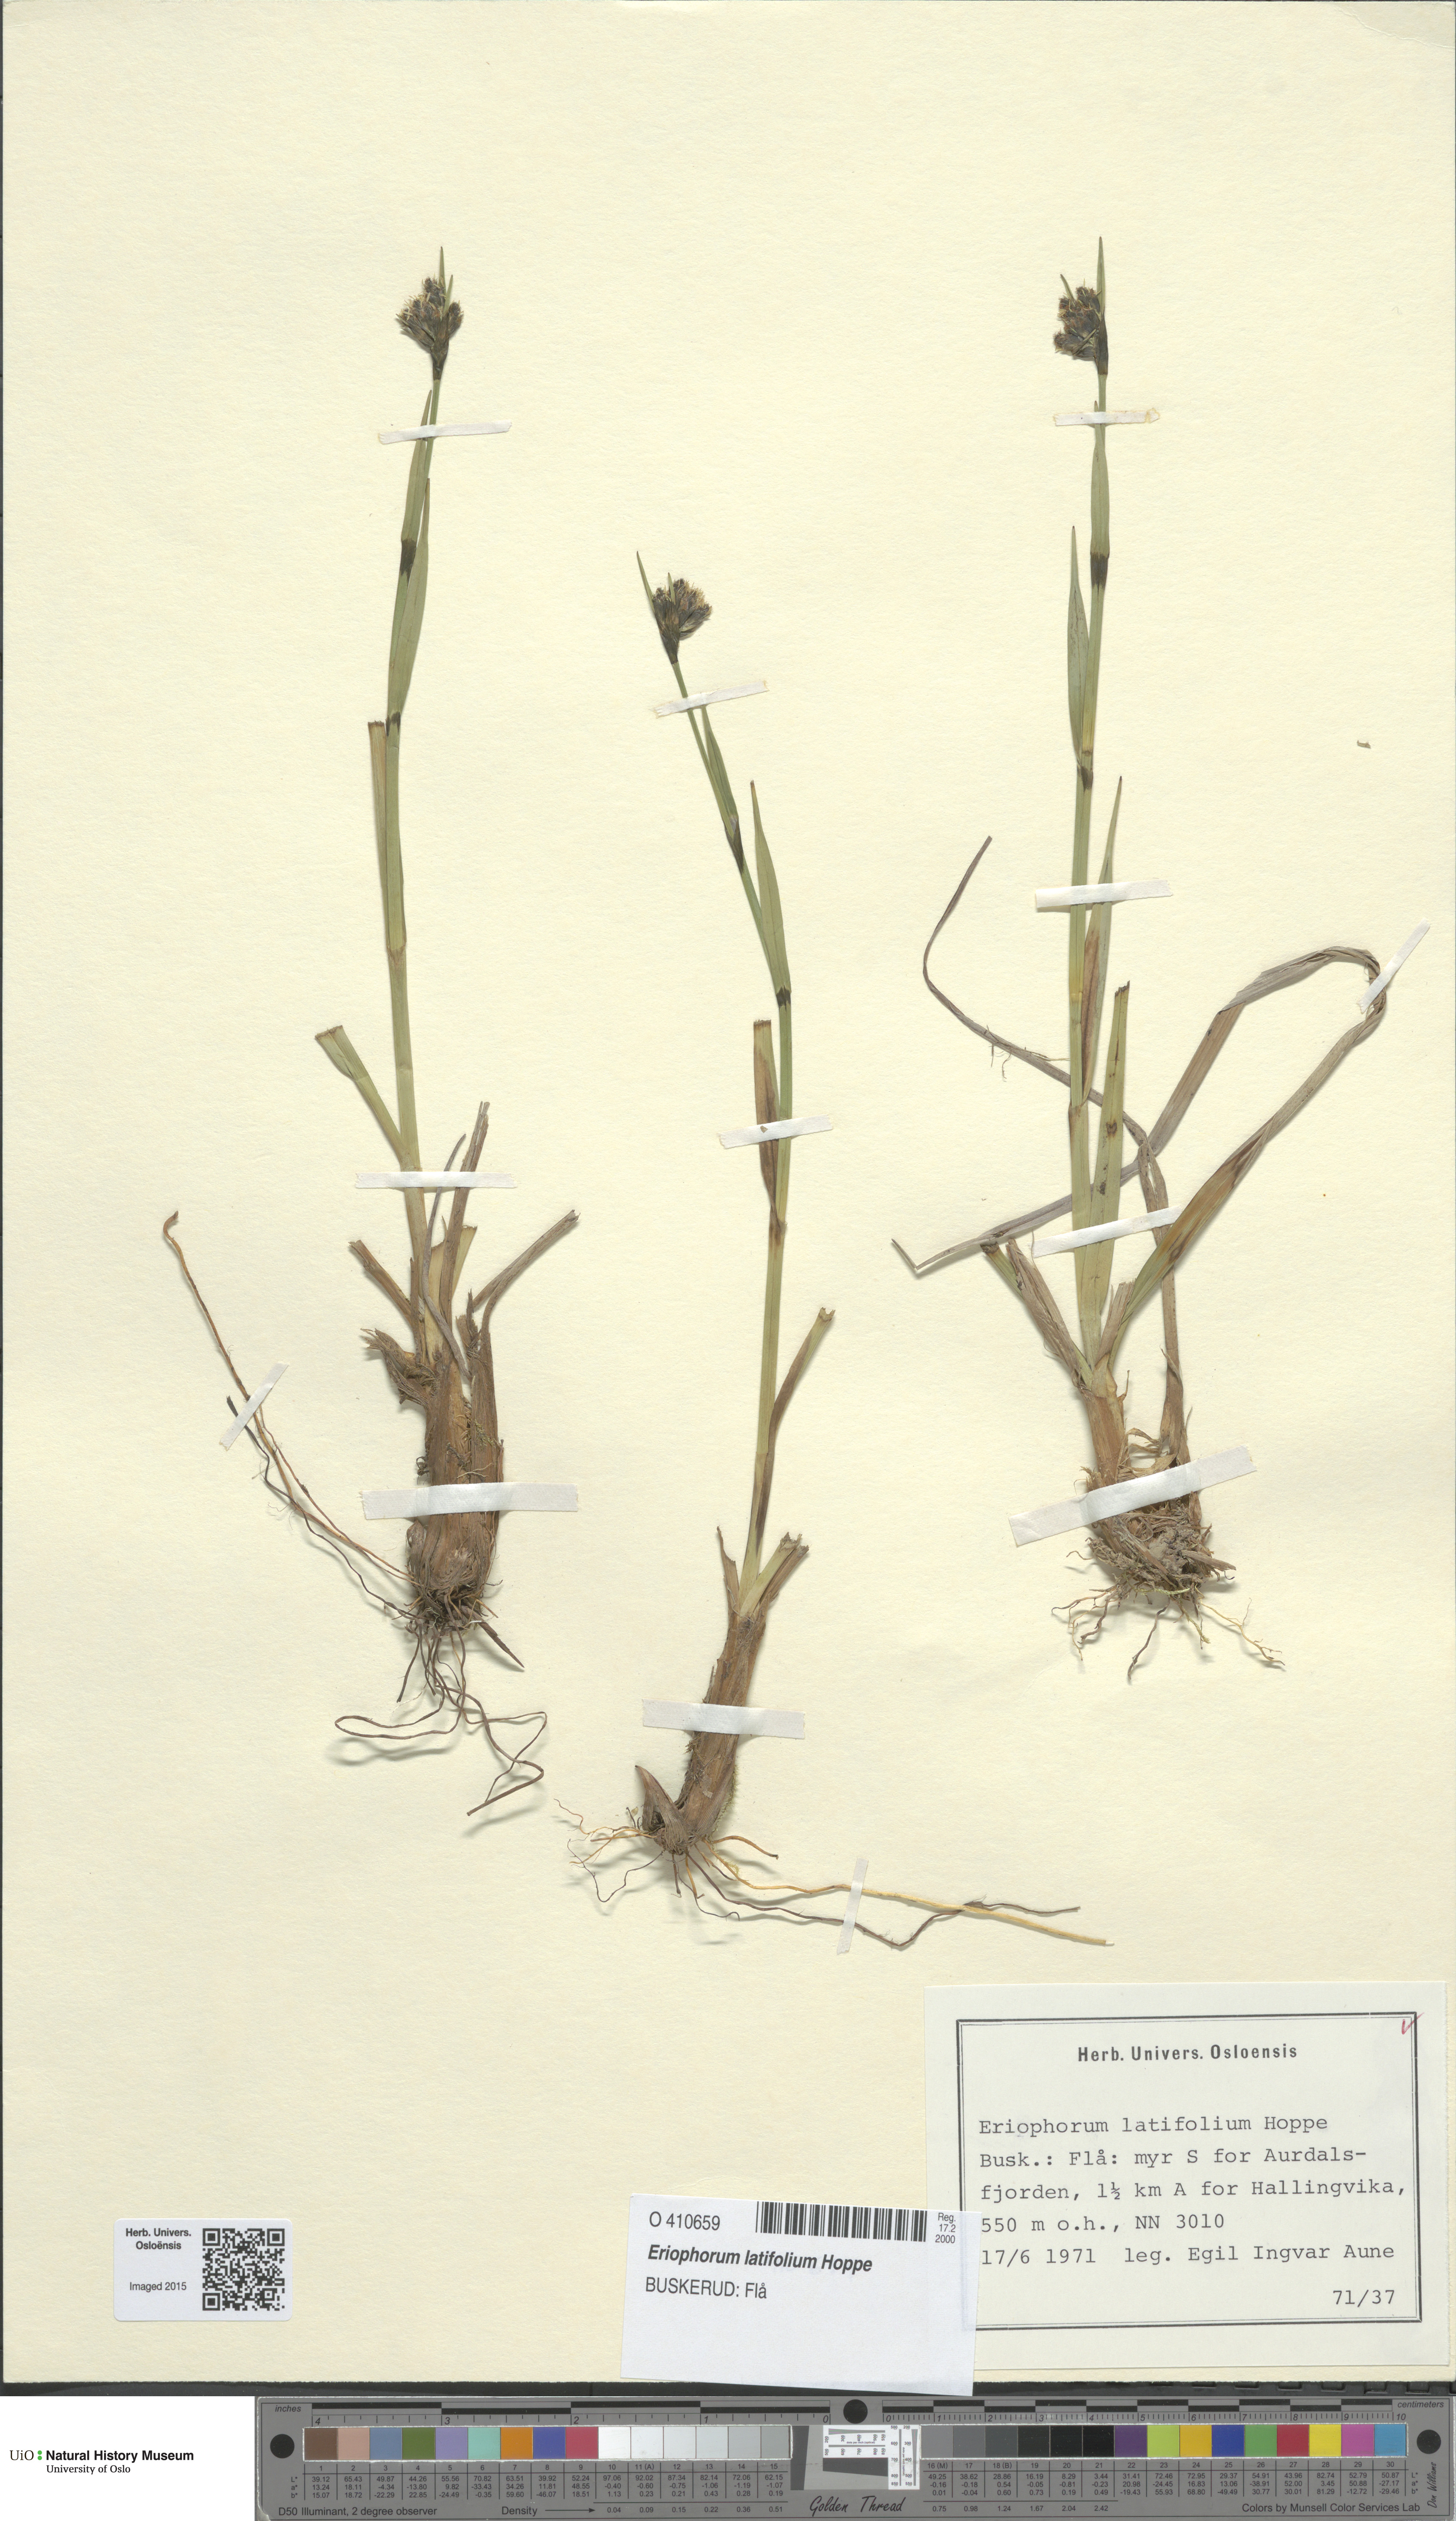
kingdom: Plantae
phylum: Tracheophyta
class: Liliopsida
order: Poales
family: Cyperaceae
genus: Eriophorum
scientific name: Eriophorum latifolium
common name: Broad-leaved cottongrass
